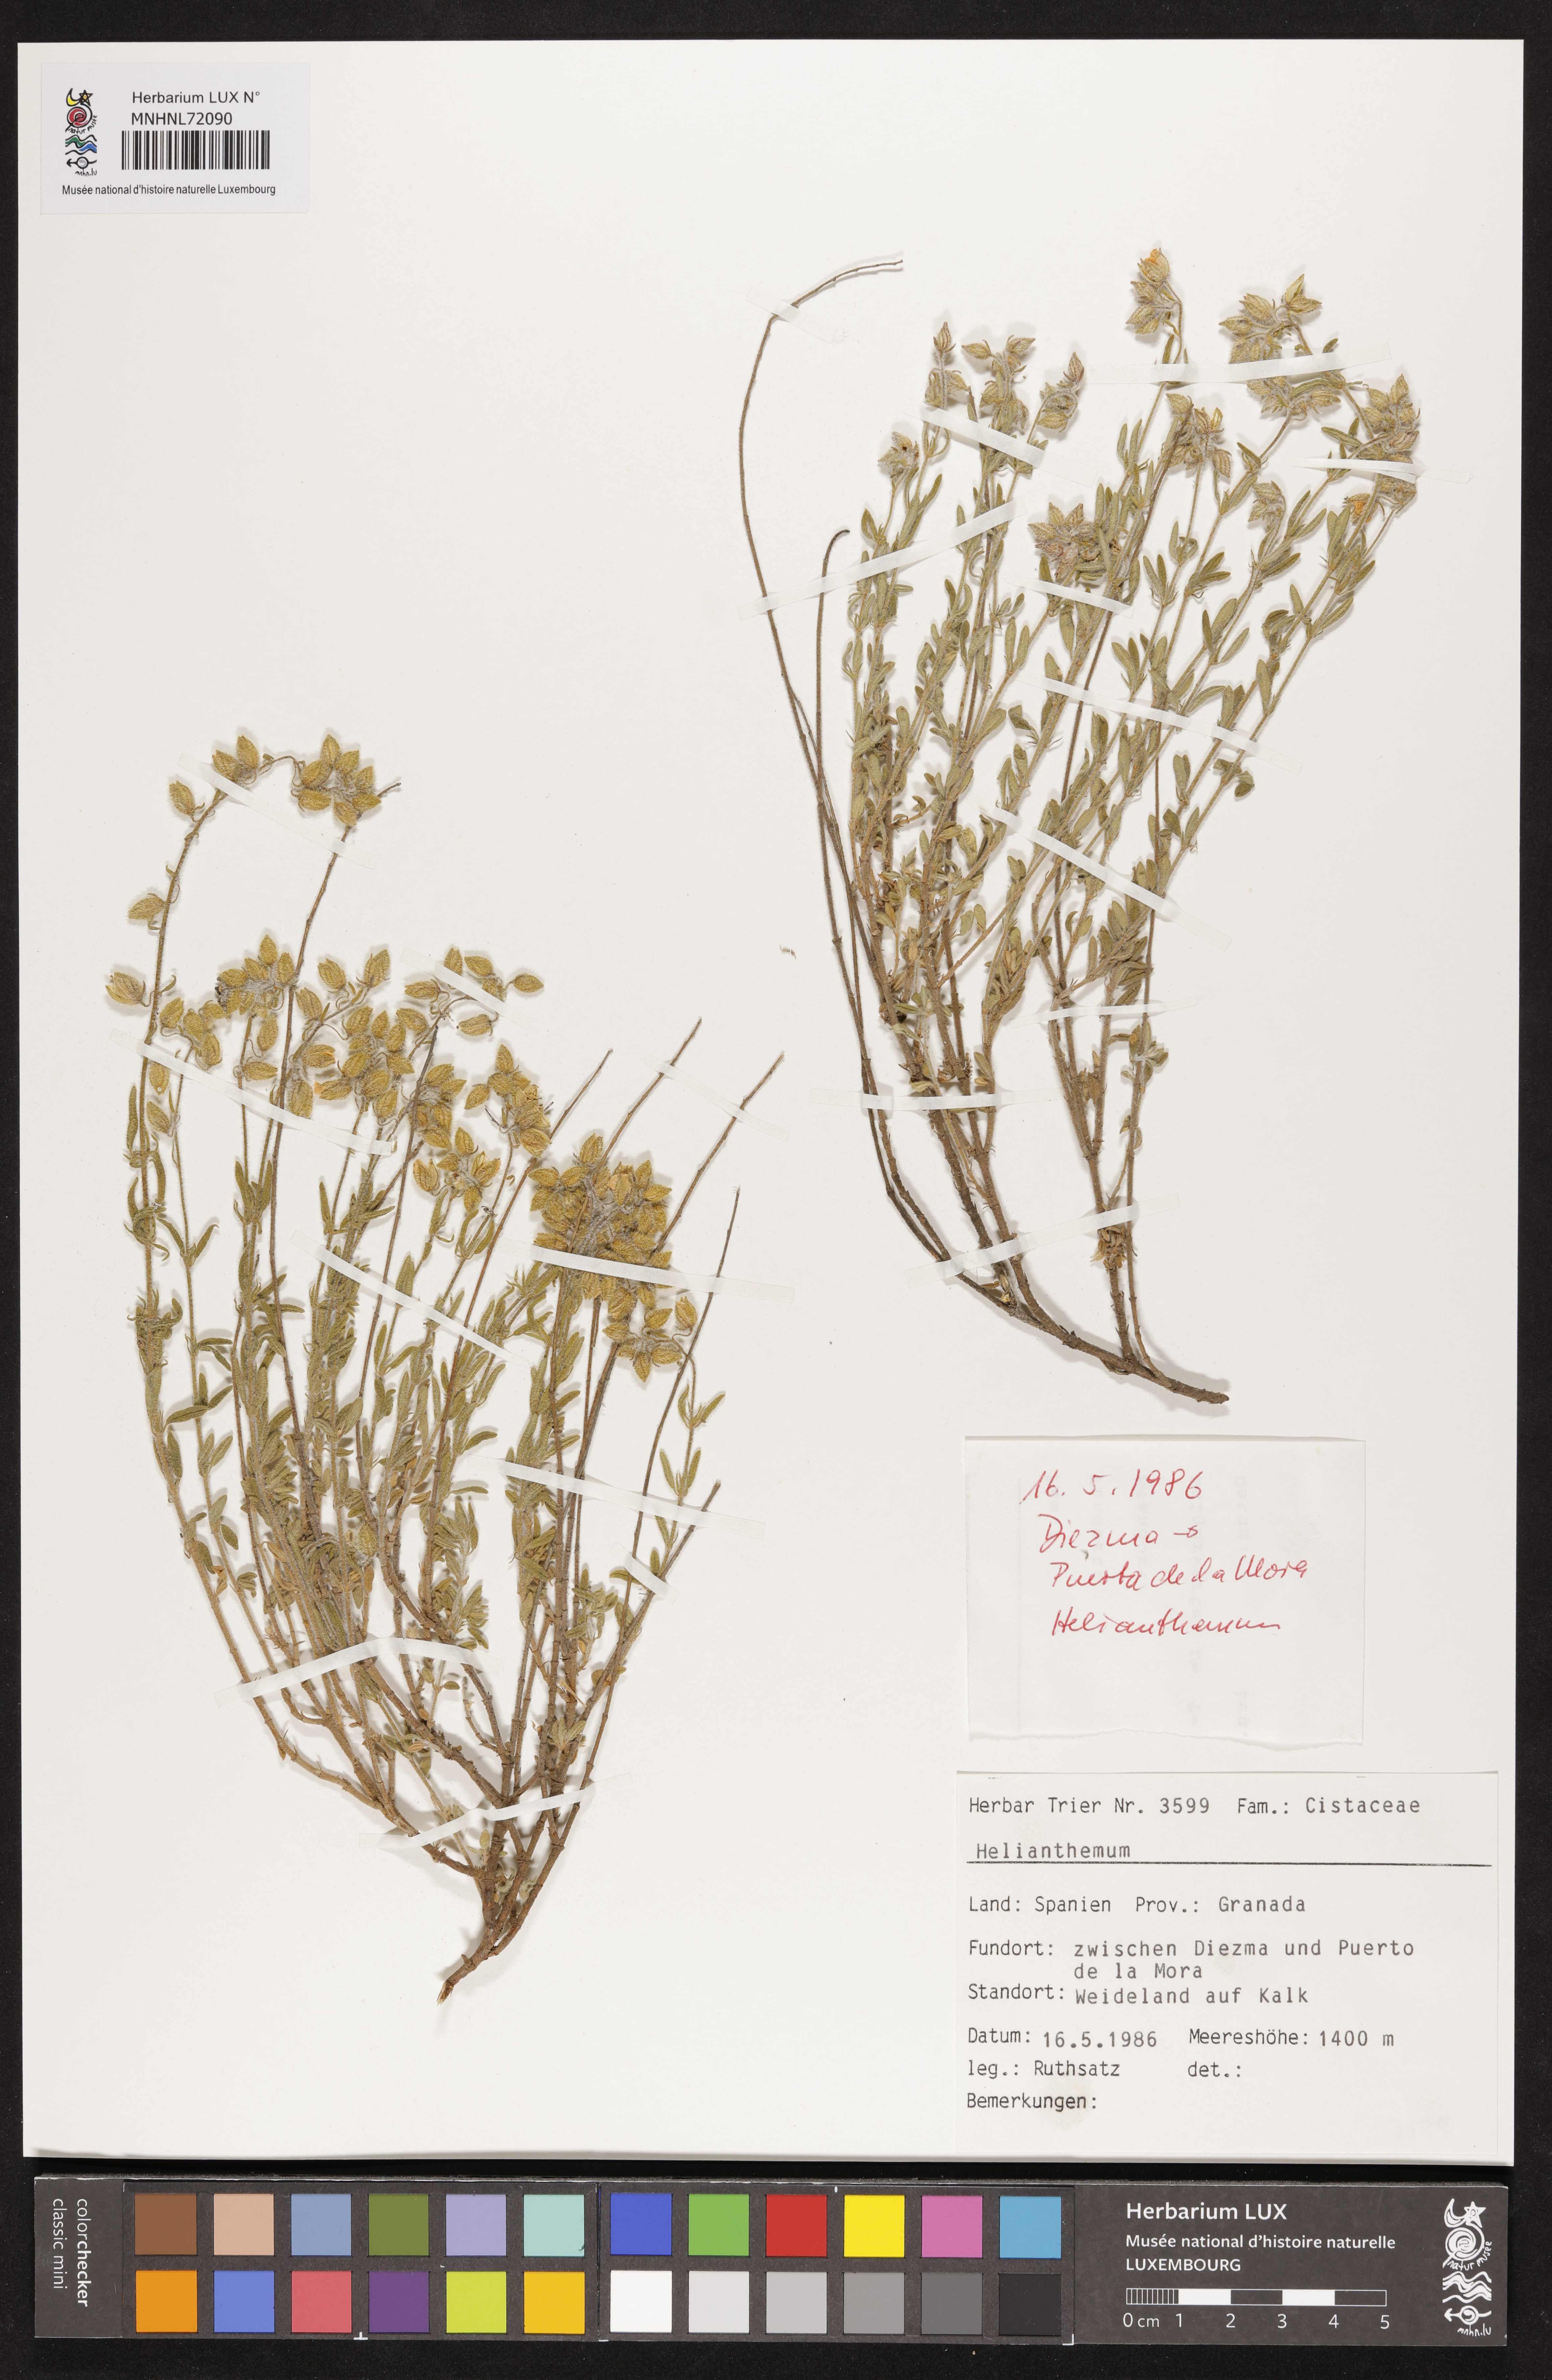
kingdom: Plantae
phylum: Tracheophyta
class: Magnoliopsida
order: Malvales
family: Cistaceae
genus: Helianthemum
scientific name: Helianthemum
